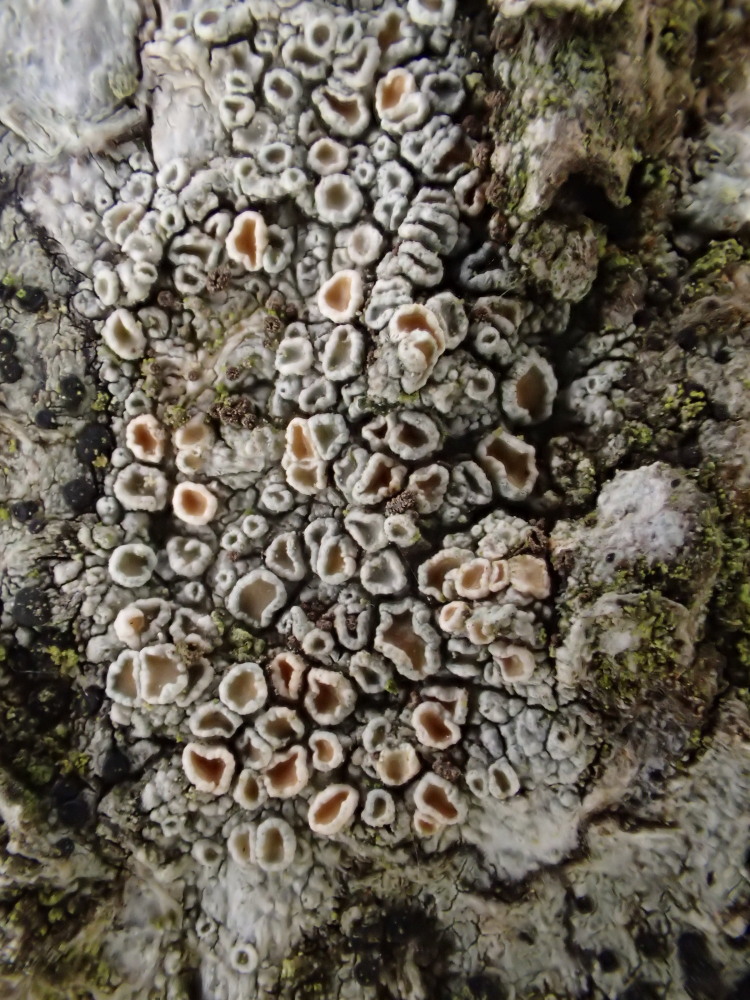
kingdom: Fungi
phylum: Ascomycota
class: Lecanoromycetes
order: Lecanorales
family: Lecanoraceae
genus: Lecanora
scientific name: Lecanora chlarotera
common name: brun kantskivelav
